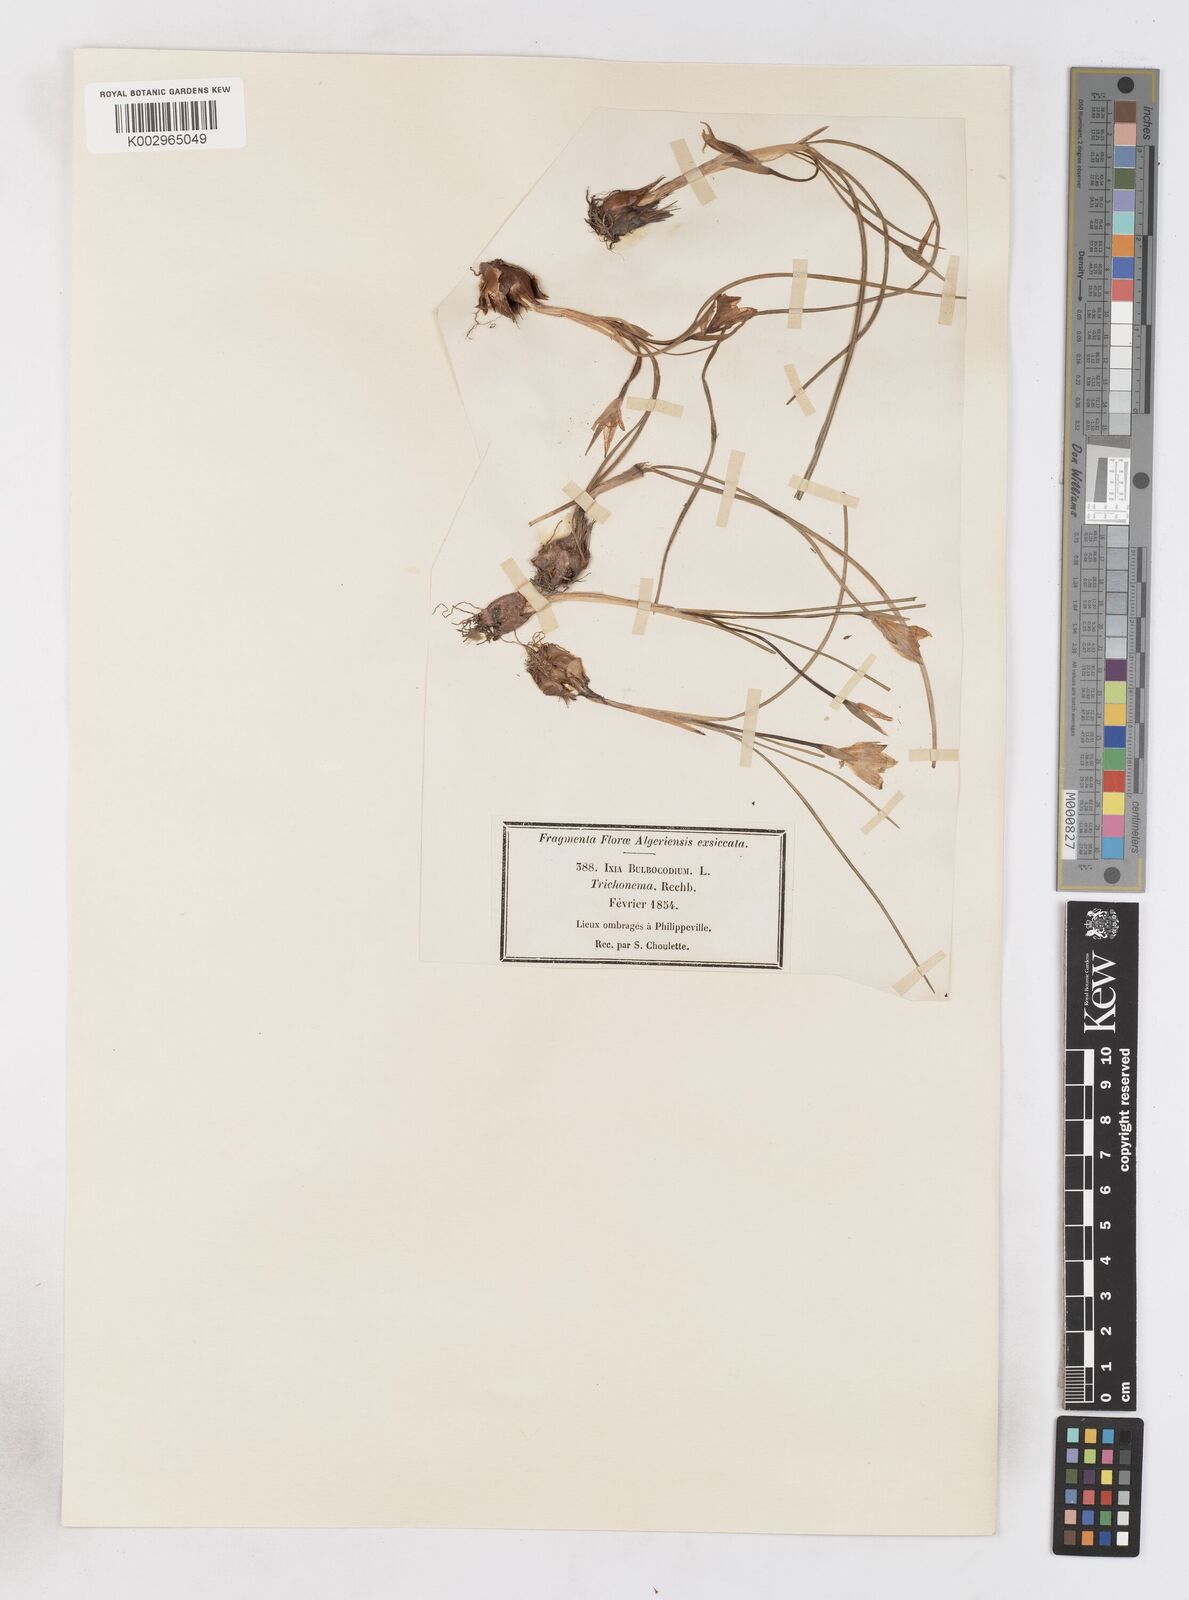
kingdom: Plantae
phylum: Tracheophyta
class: Liliopsida
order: Asparagales
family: Iridaceae
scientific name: Iridaceae
